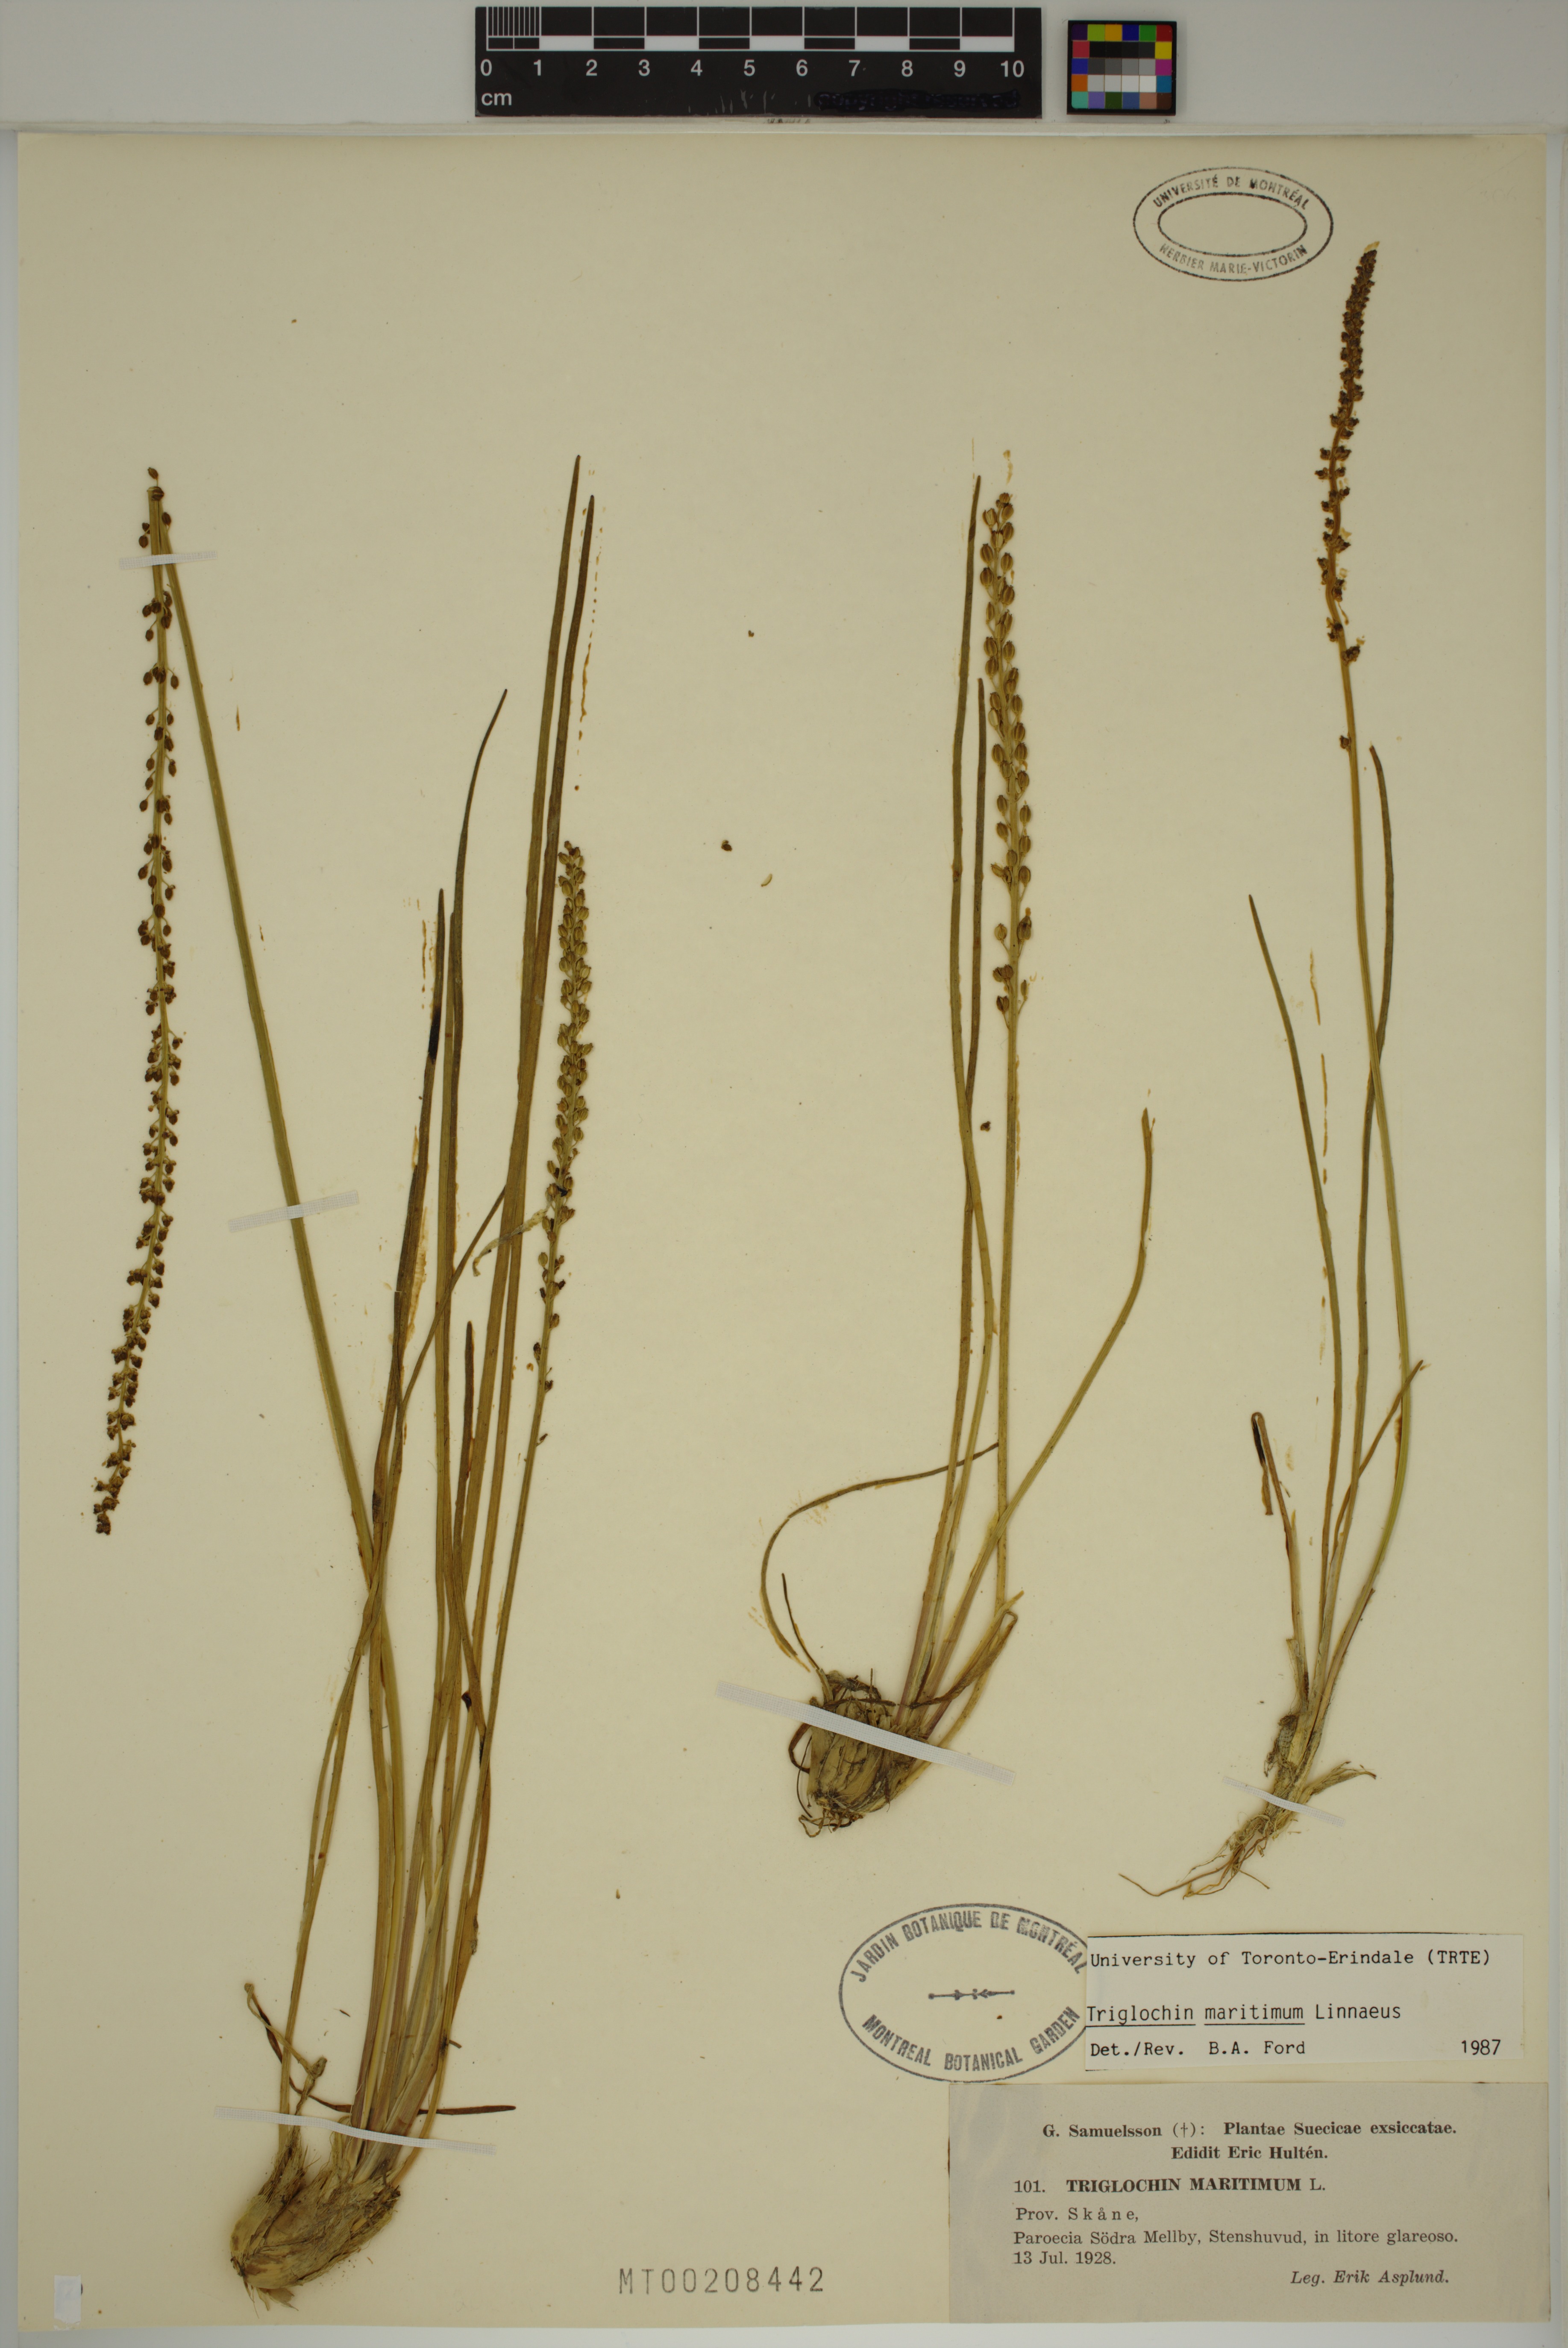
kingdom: Plantae
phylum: Tracheophyta
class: Liliopsida
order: Alismatales
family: Juncaginaceae
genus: Triglochin
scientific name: Triglochin maritima
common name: Sea arrowgrass
